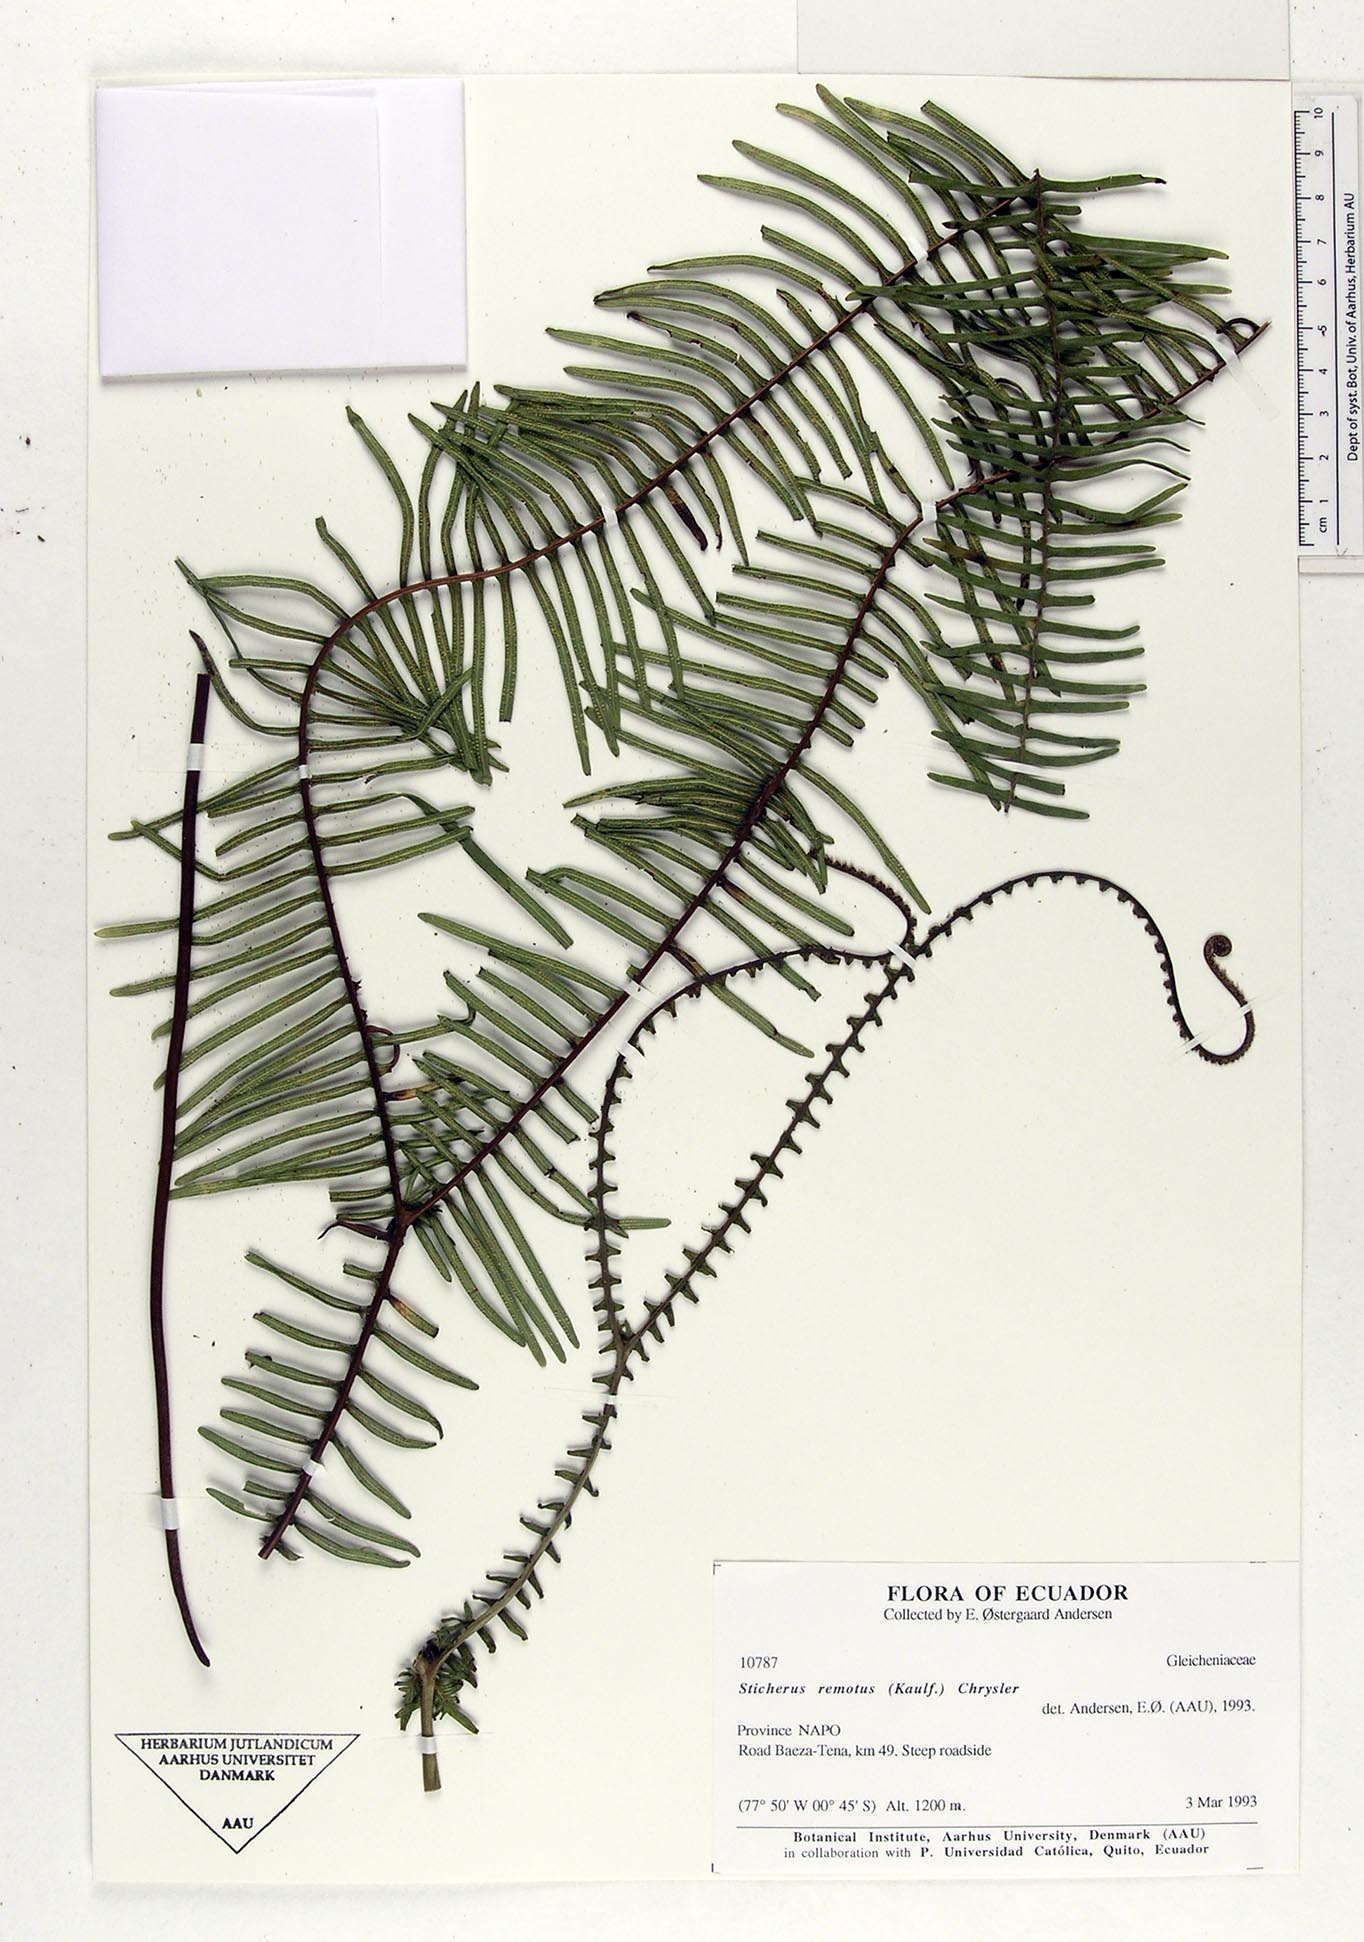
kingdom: Plantae
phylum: Tracheophyta
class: Polypodiopsida
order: Gleicheniales
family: Gleicheniaceae
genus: Sticherus
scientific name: Sticherus remotus
